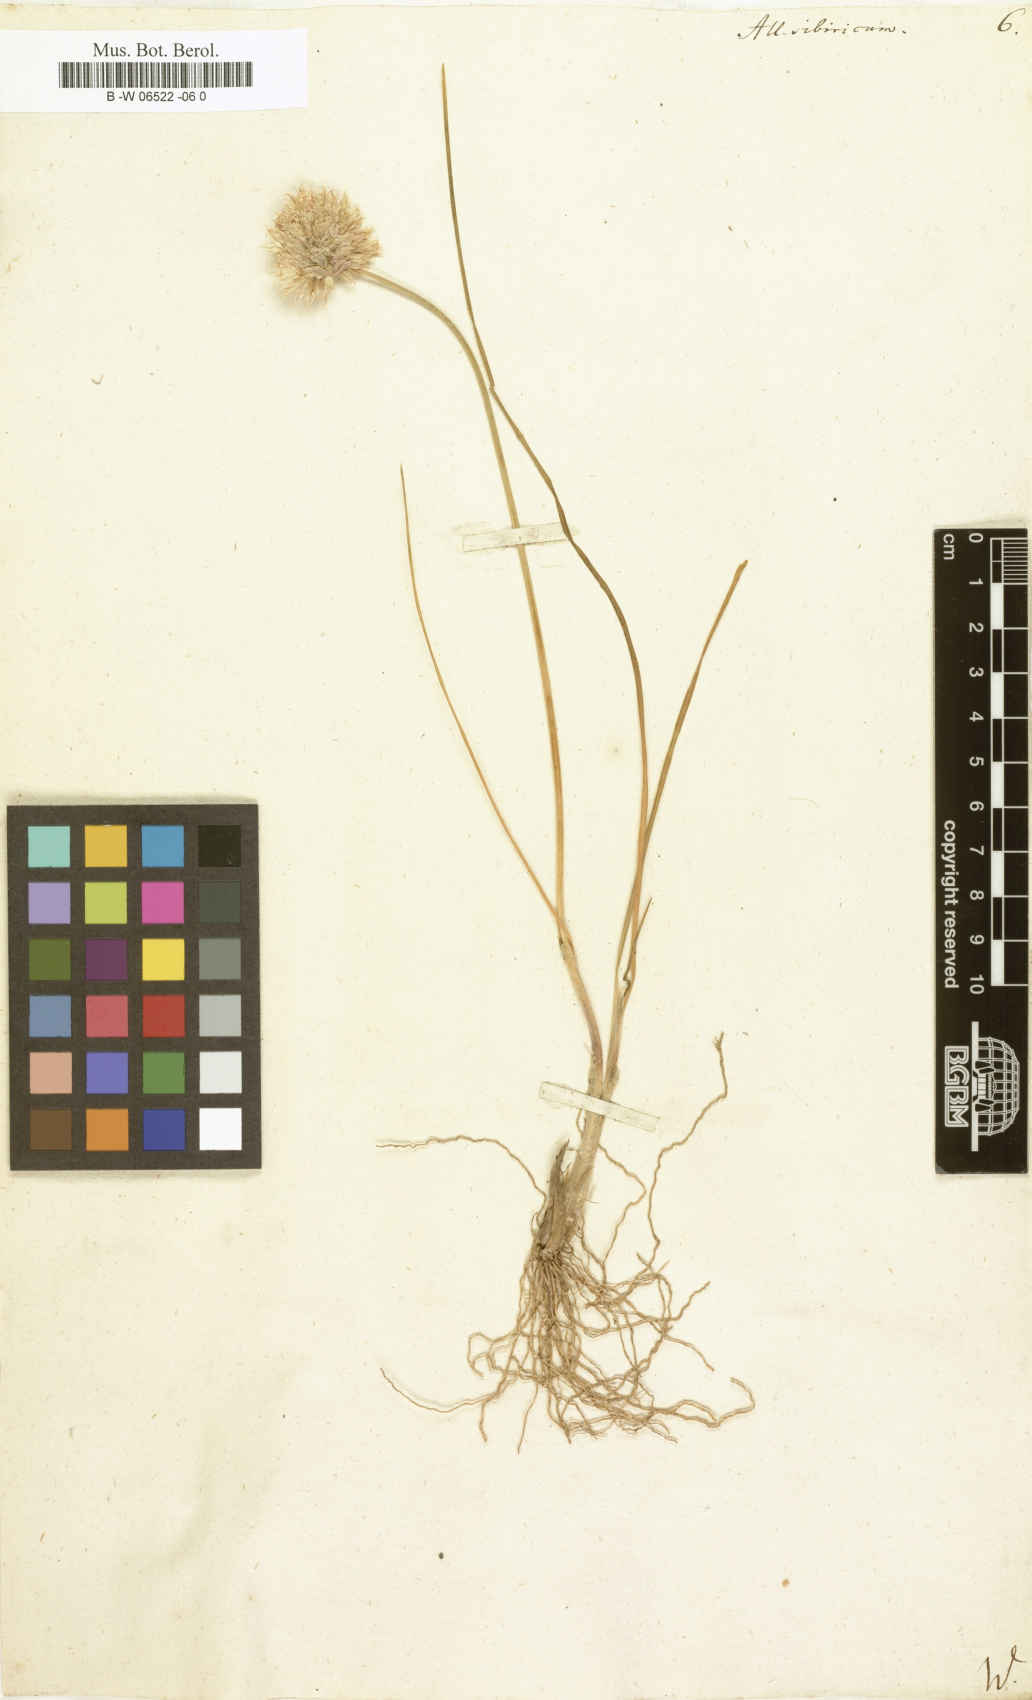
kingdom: Plantae
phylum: Tracheophyta
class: Liliopsida
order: Asparagales
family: Amaryllidaceae
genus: Allium
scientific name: Allium schoenoprasum
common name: Chives
